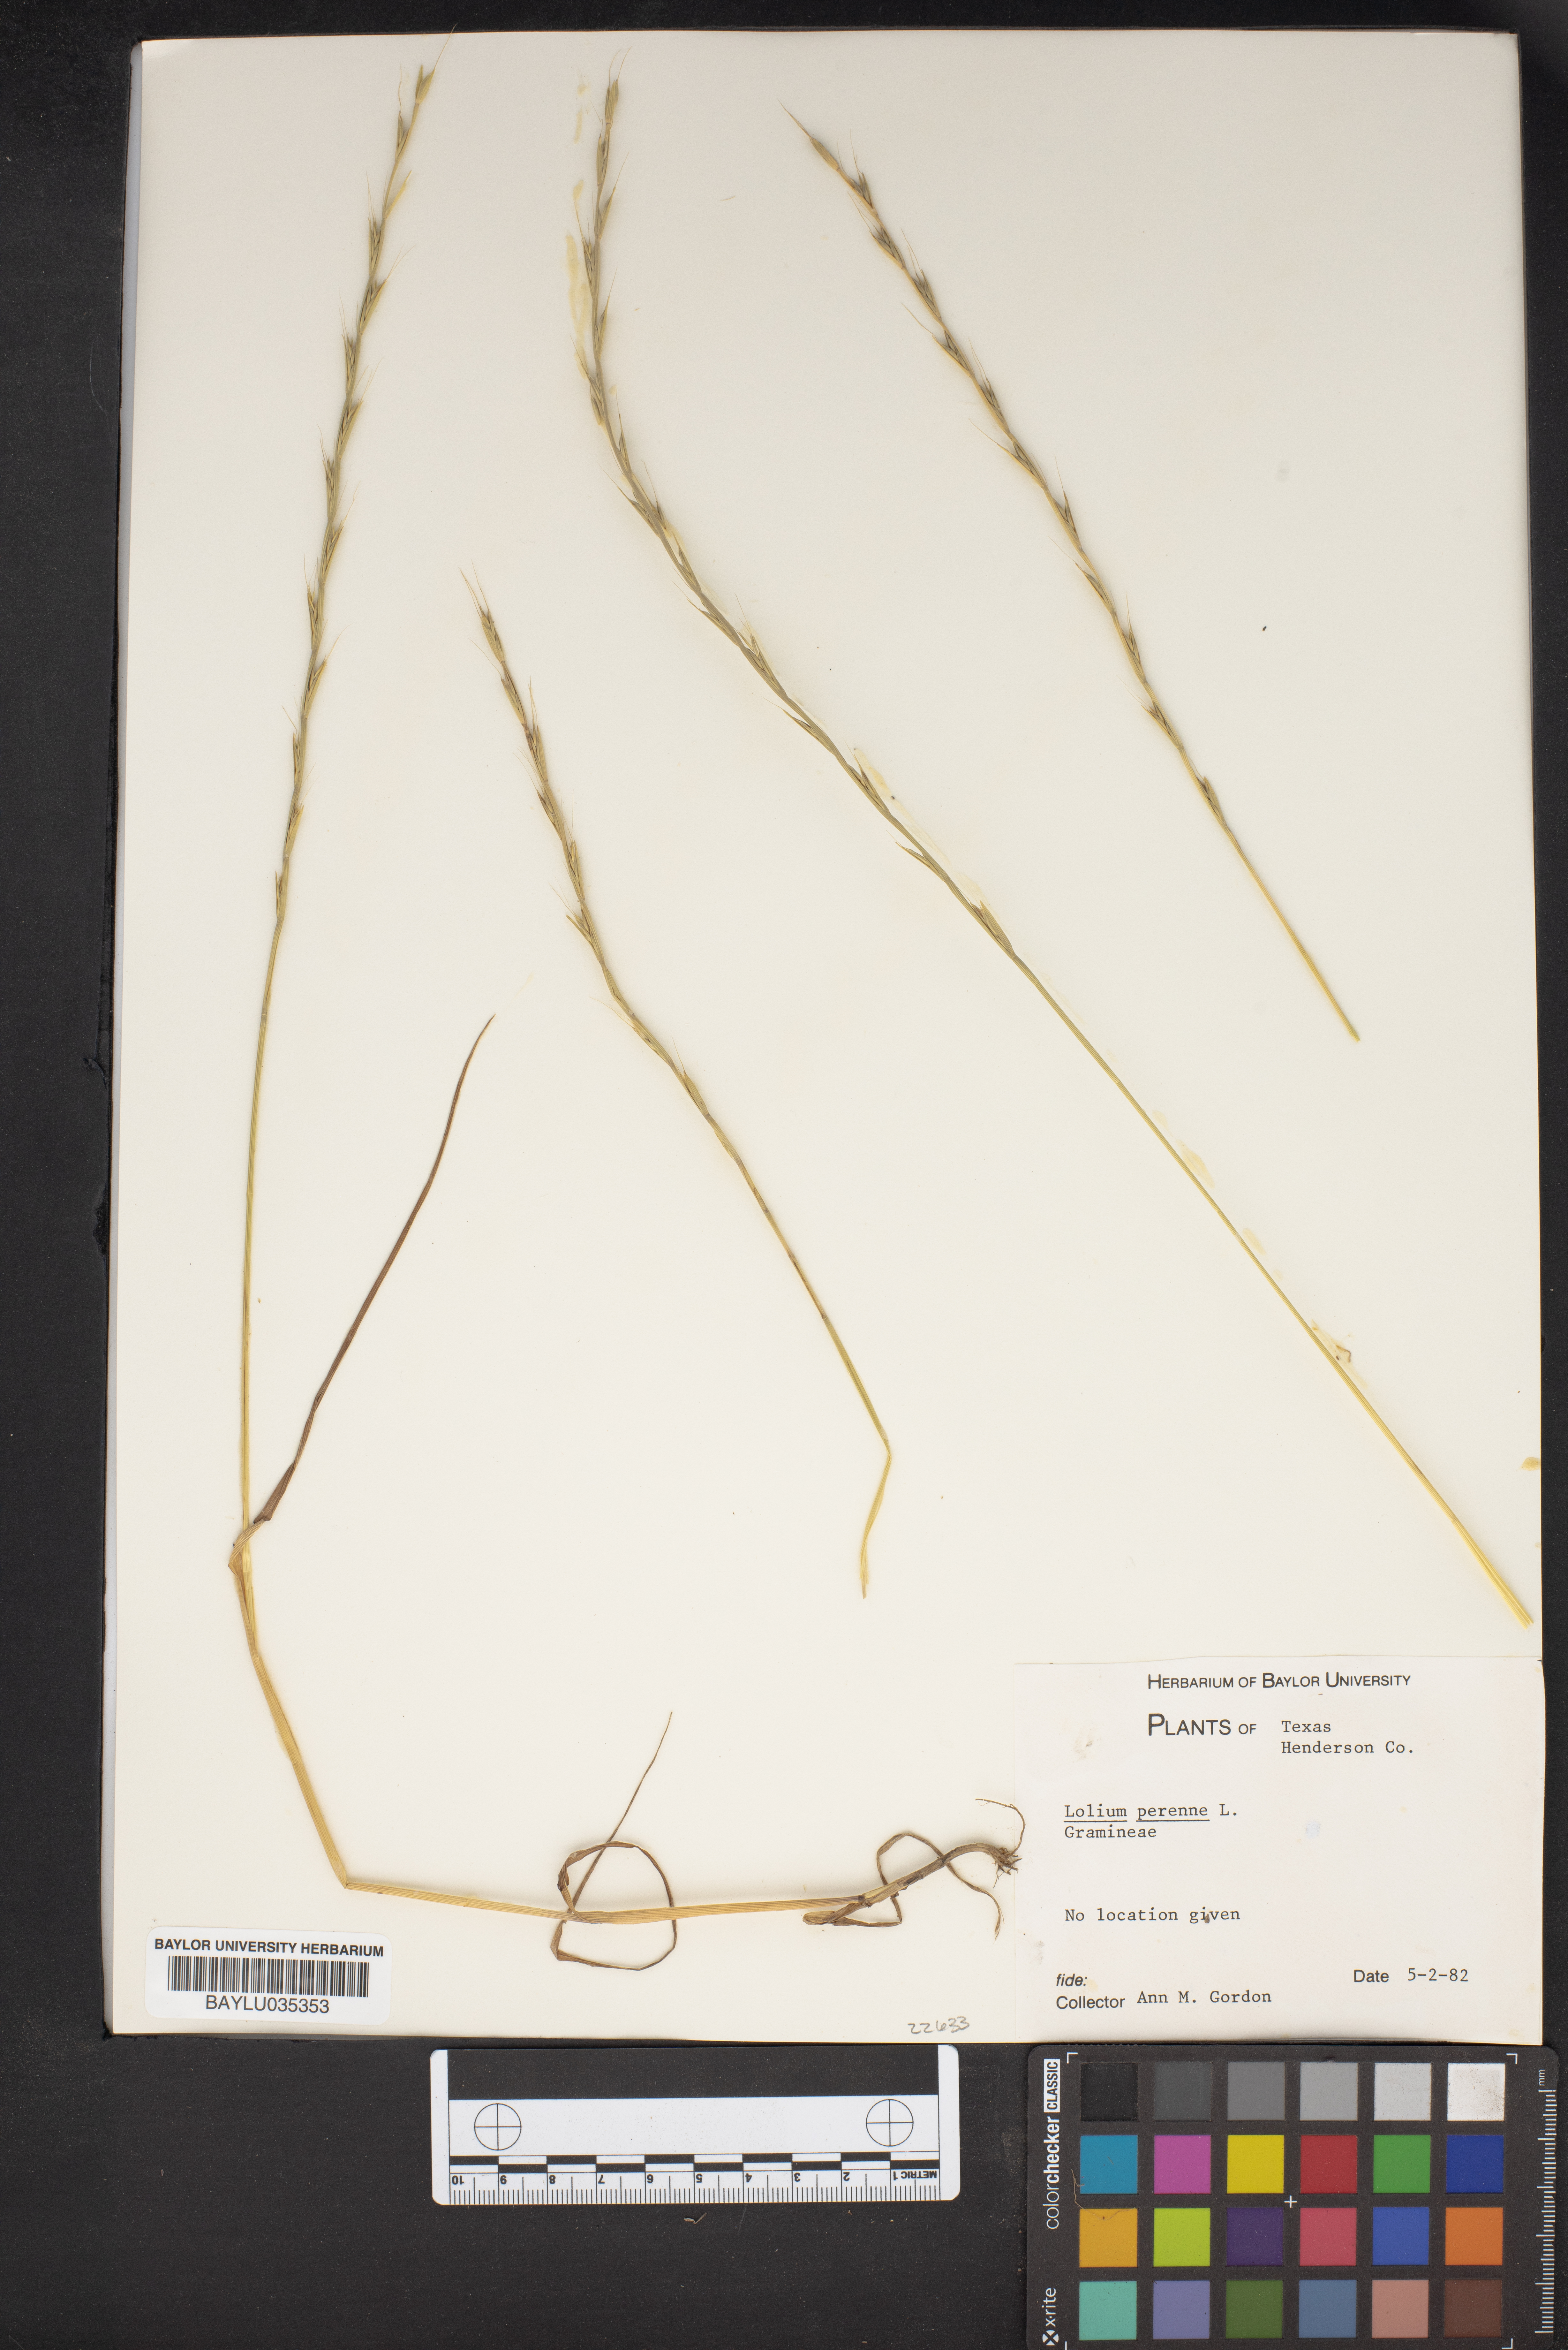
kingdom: Plantae
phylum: Tracheophyta
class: Liliopsida
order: Poales
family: Poaceae
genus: Lolium
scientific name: Lolium perenne
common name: Perennial ryegrass
